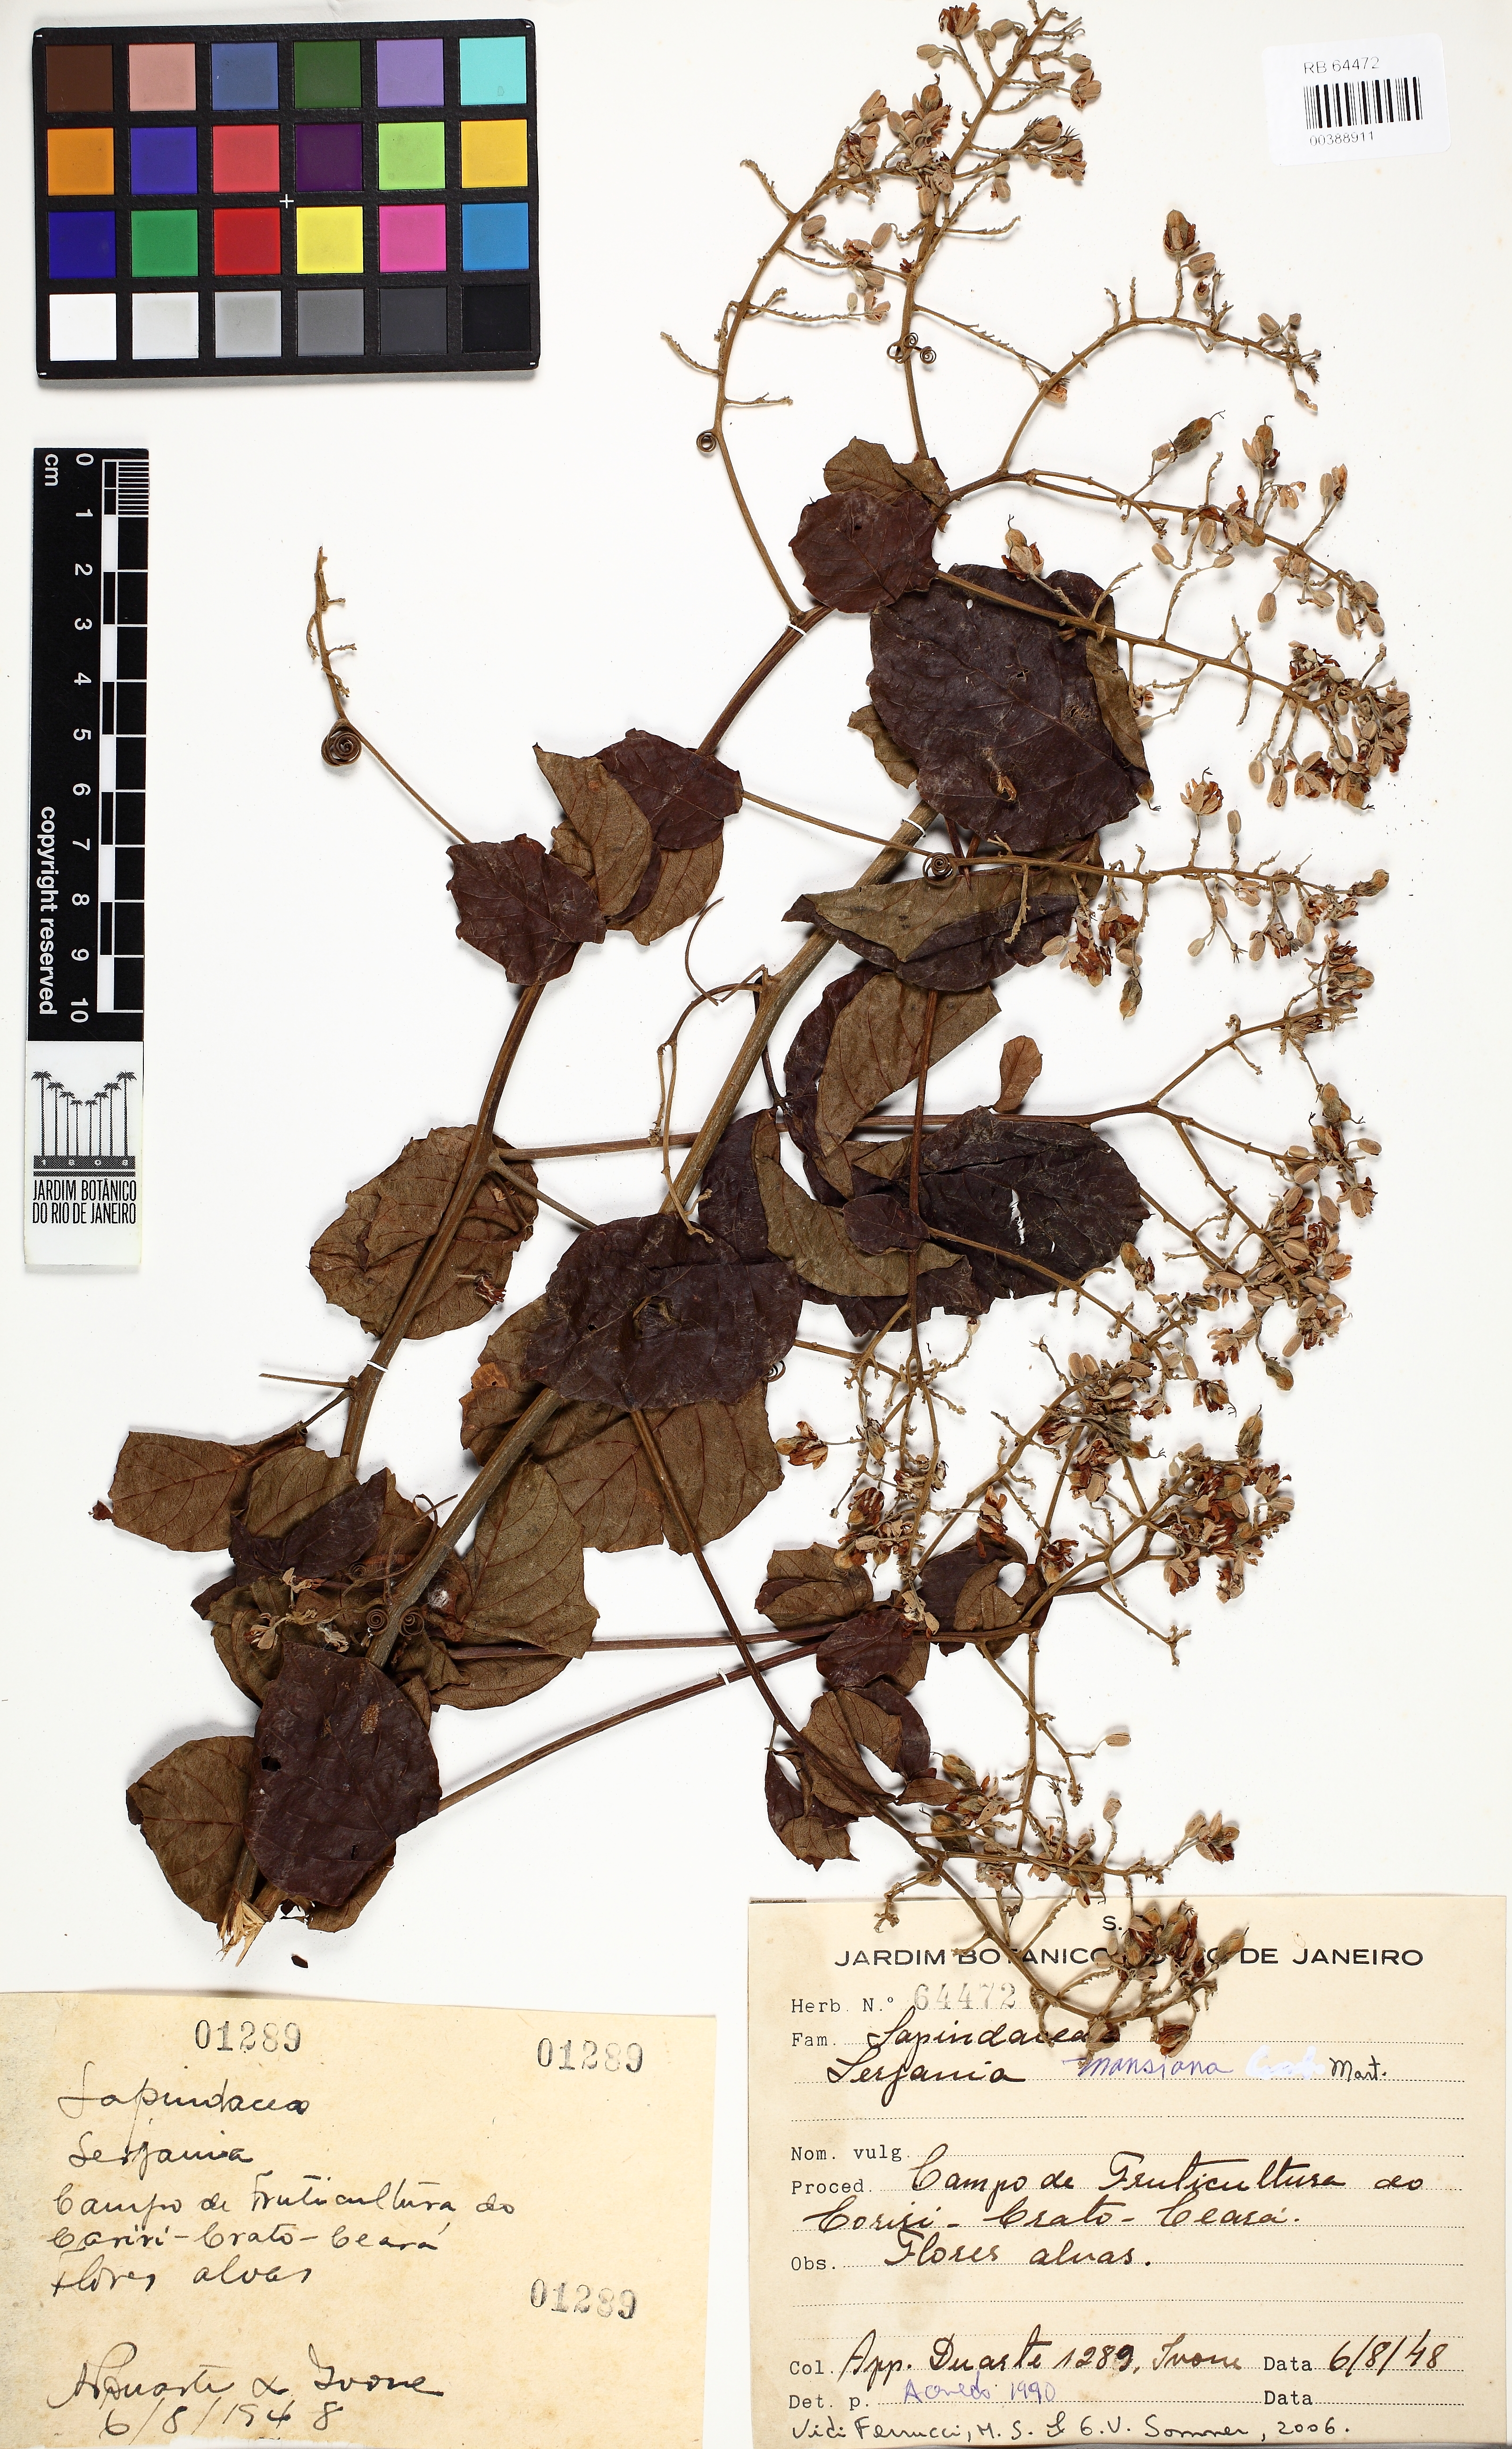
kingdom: Plantae
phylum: Tracheophyta
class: Magnoliopsida
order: Sapindales
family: Sapindaceae
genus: Serjania
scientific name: Serjania mansiana
